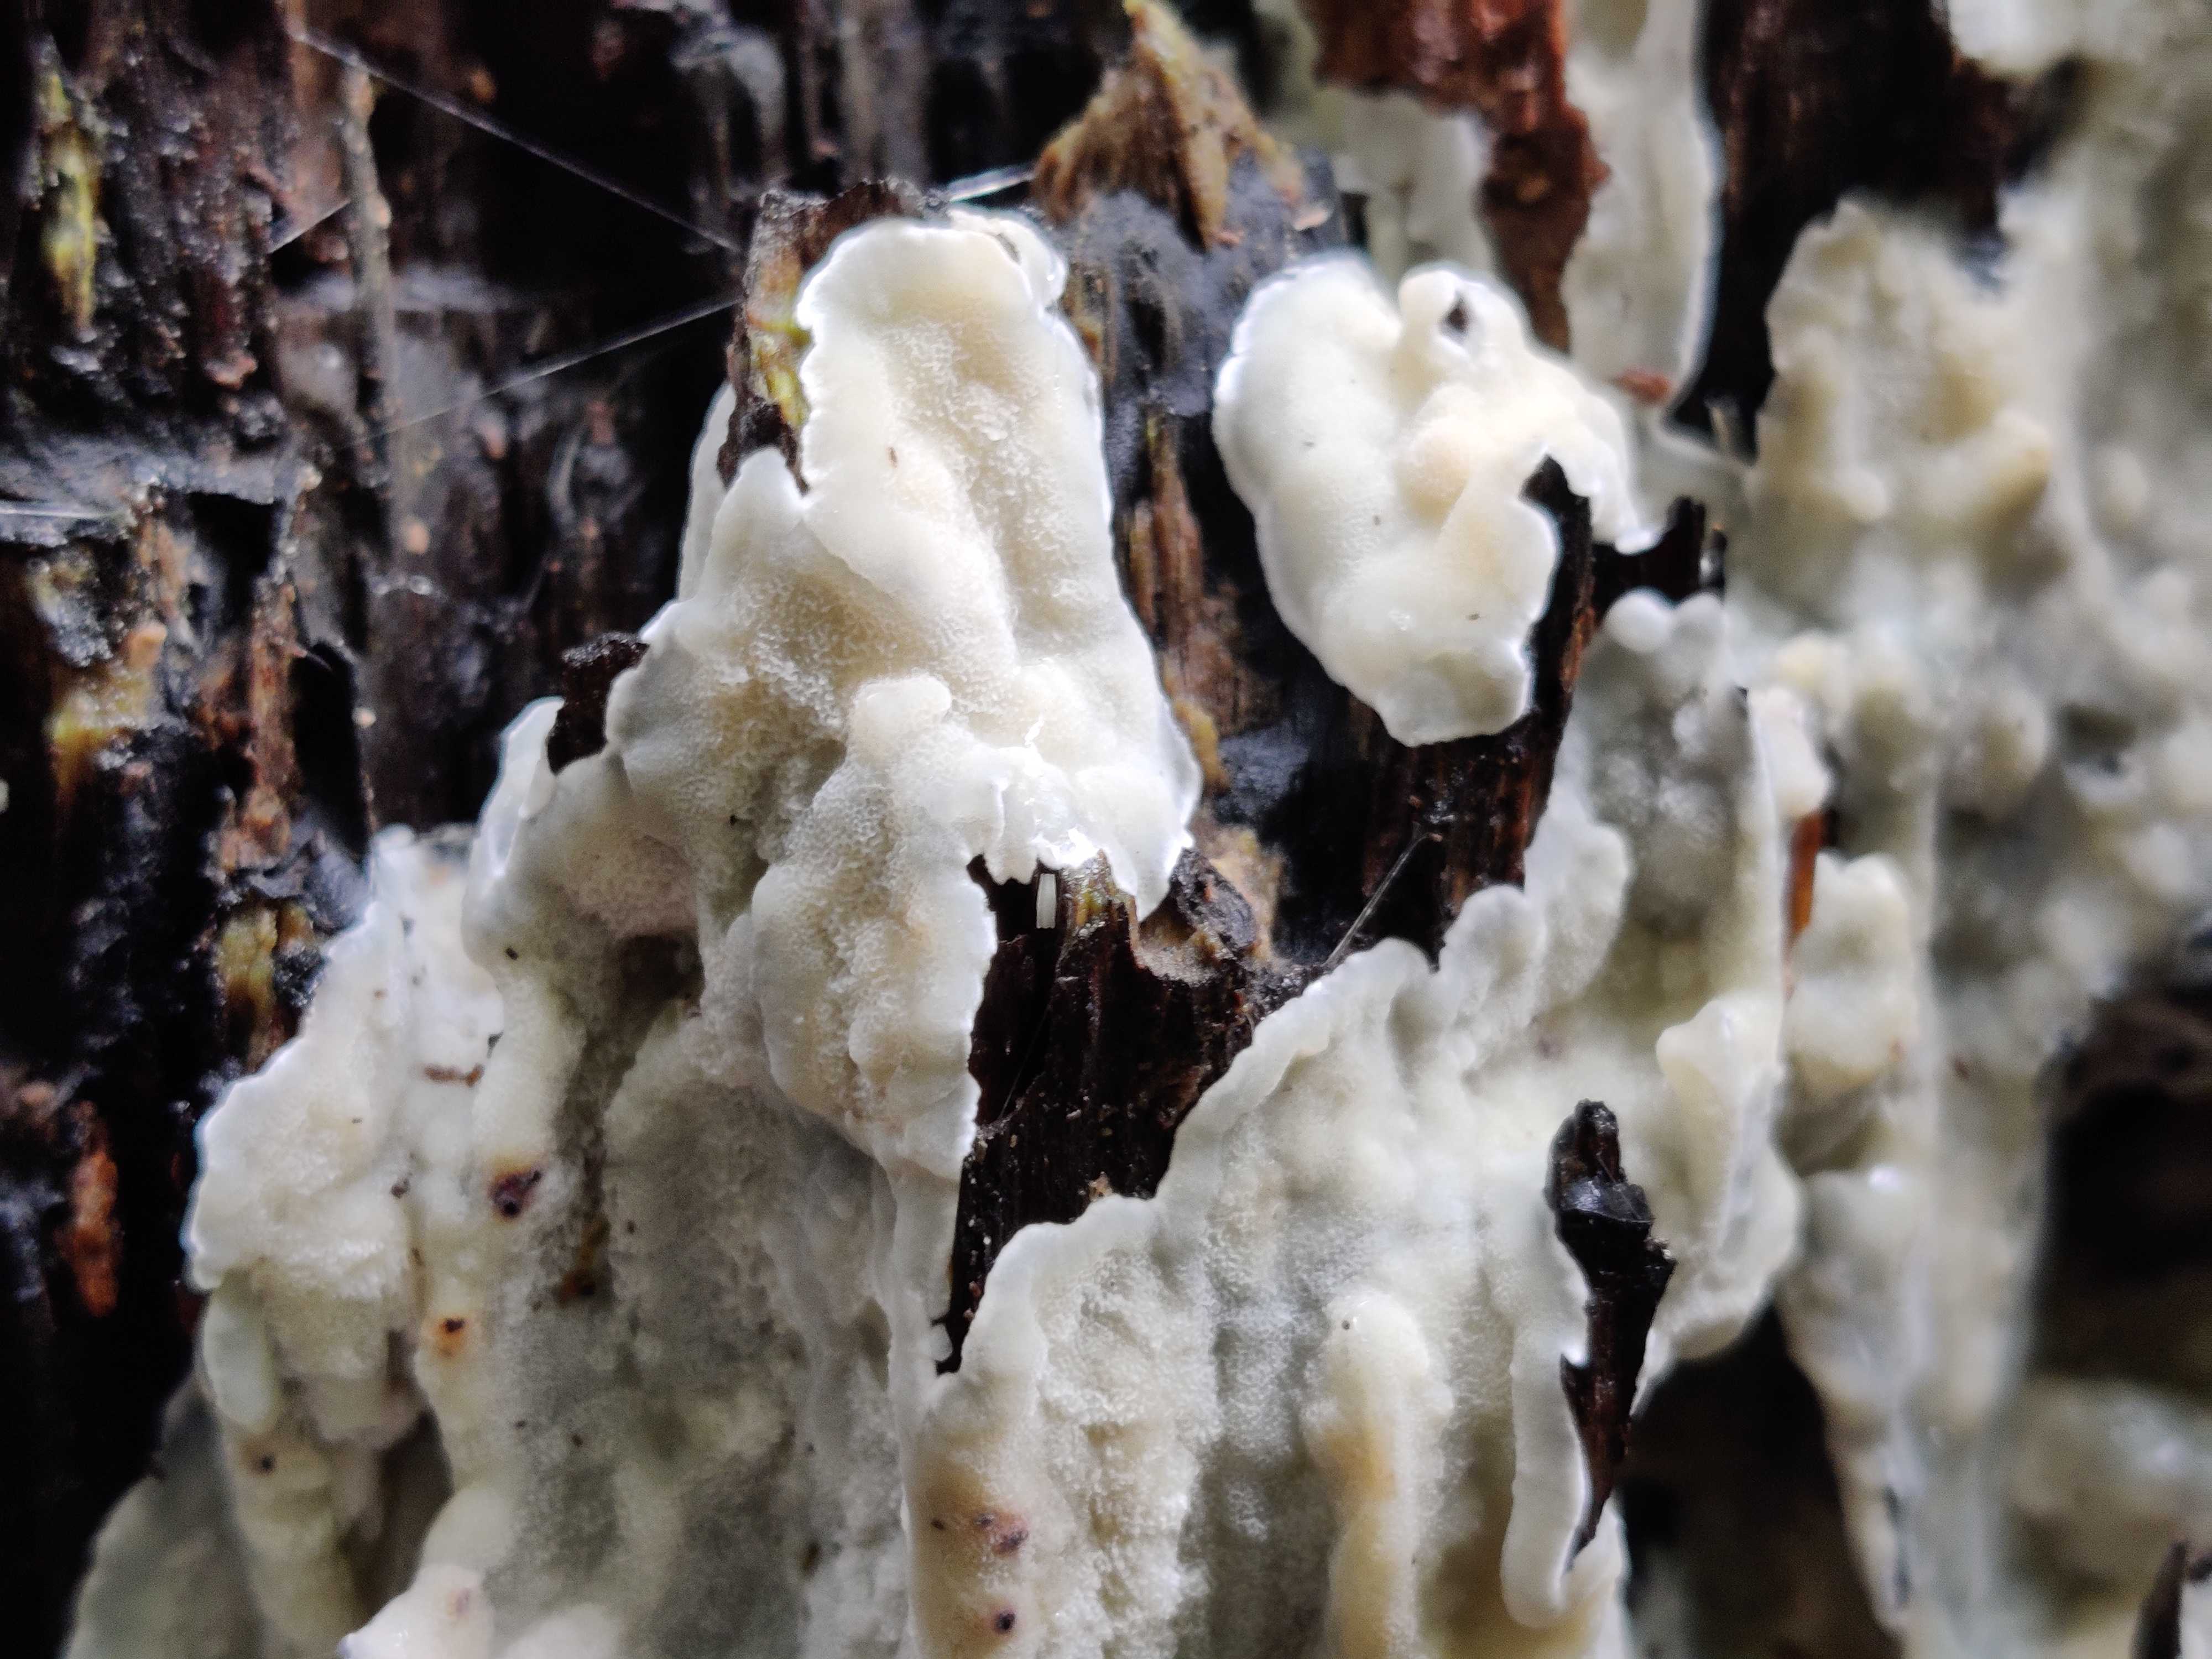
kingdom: Fungi
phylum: Basidiomycota
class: Agaricomycetes
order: Polyporales
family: Meruliaceae
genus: Physisporinus
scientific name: Physisporinus vitreus
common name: mastesvamp
